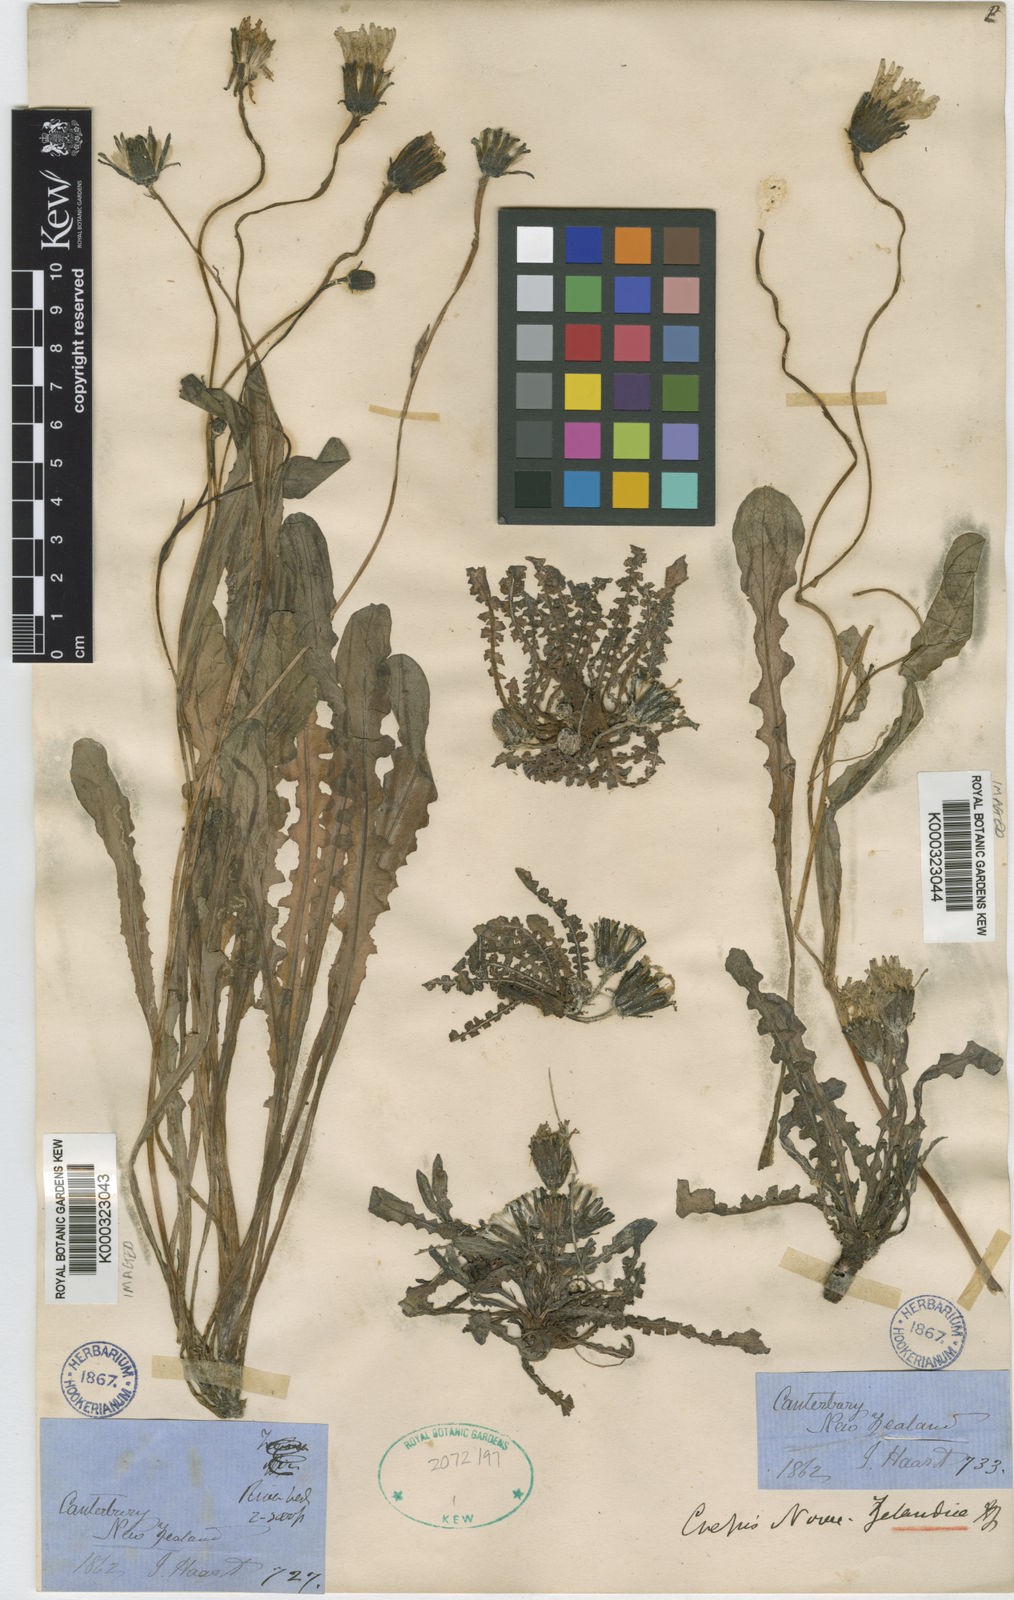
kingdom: Plantae
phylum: Tracheophyta
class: Magnoliopsida
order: Asterales
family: Asteraceae
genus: Sonchus
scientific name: Sonchus novae-zelandiae
